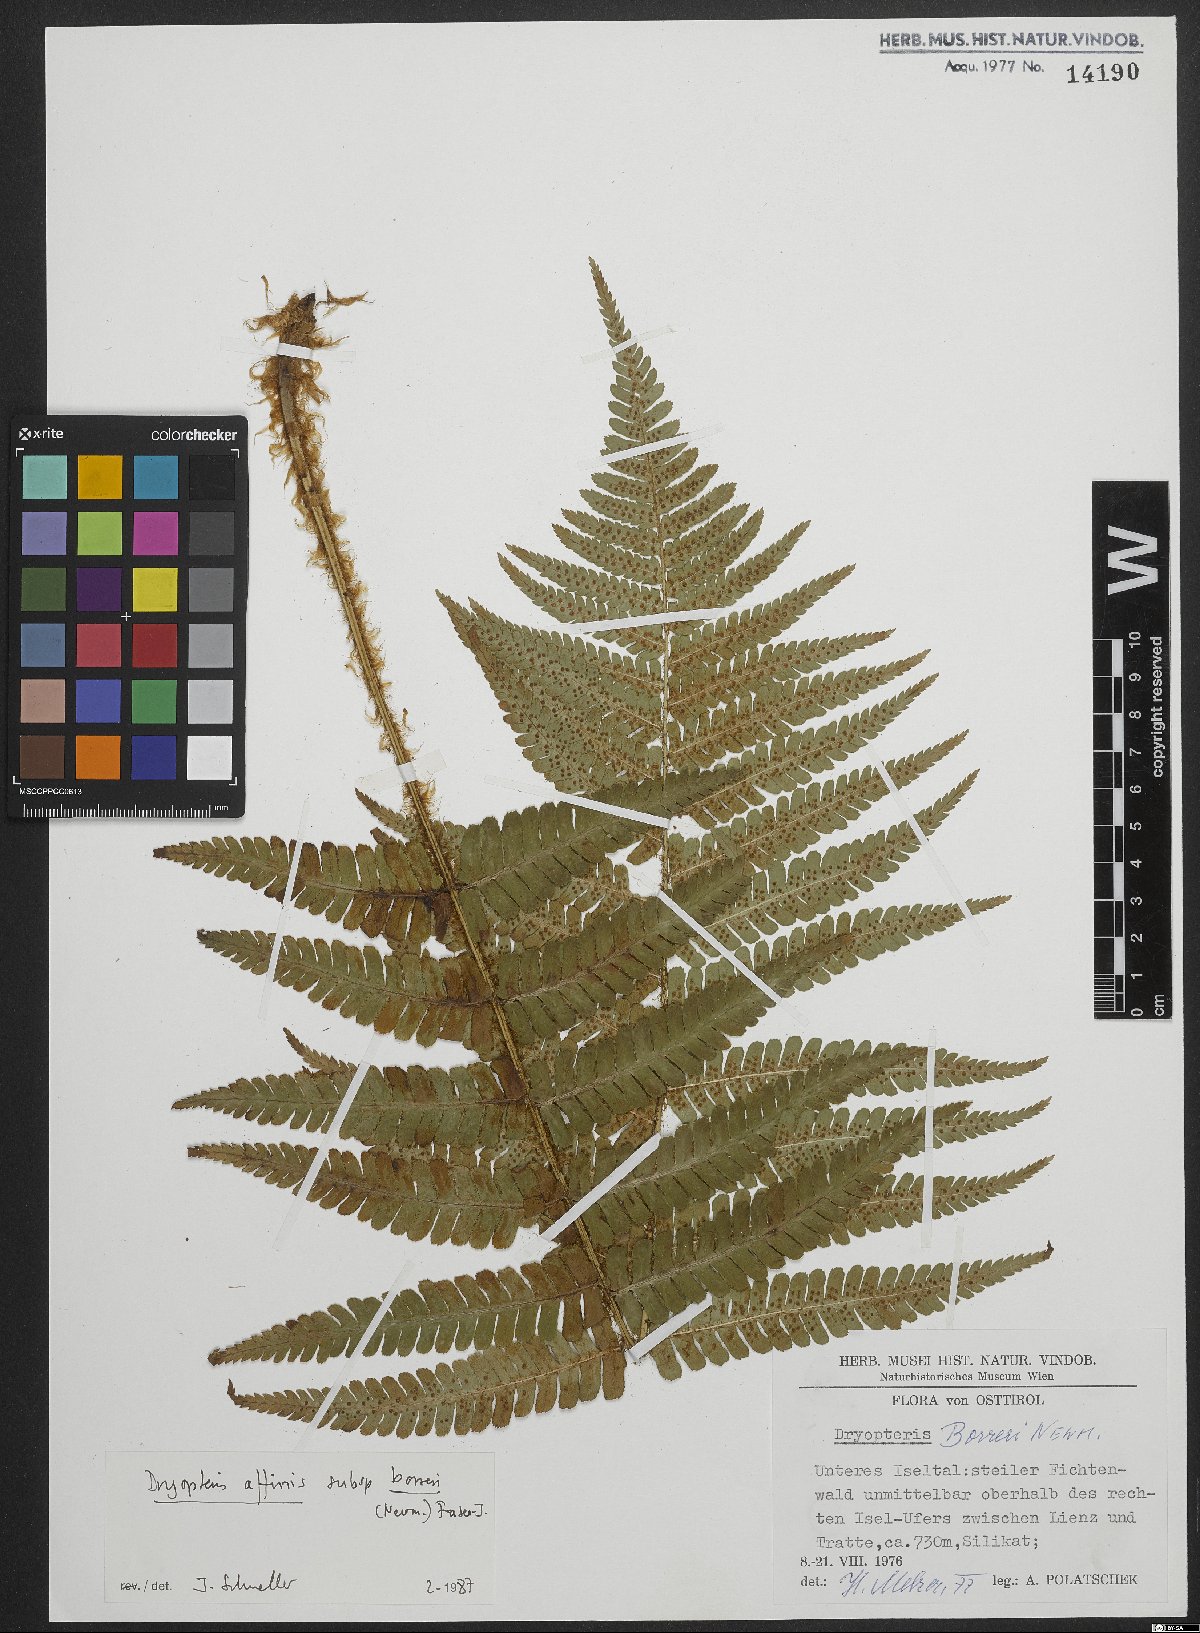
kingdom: Plantae
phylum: Tracheophyta
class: Polypodiopsida
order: Polypodiales
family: Dryopteridaceae
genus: Dryopteris
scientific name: Dryopteris borreri
